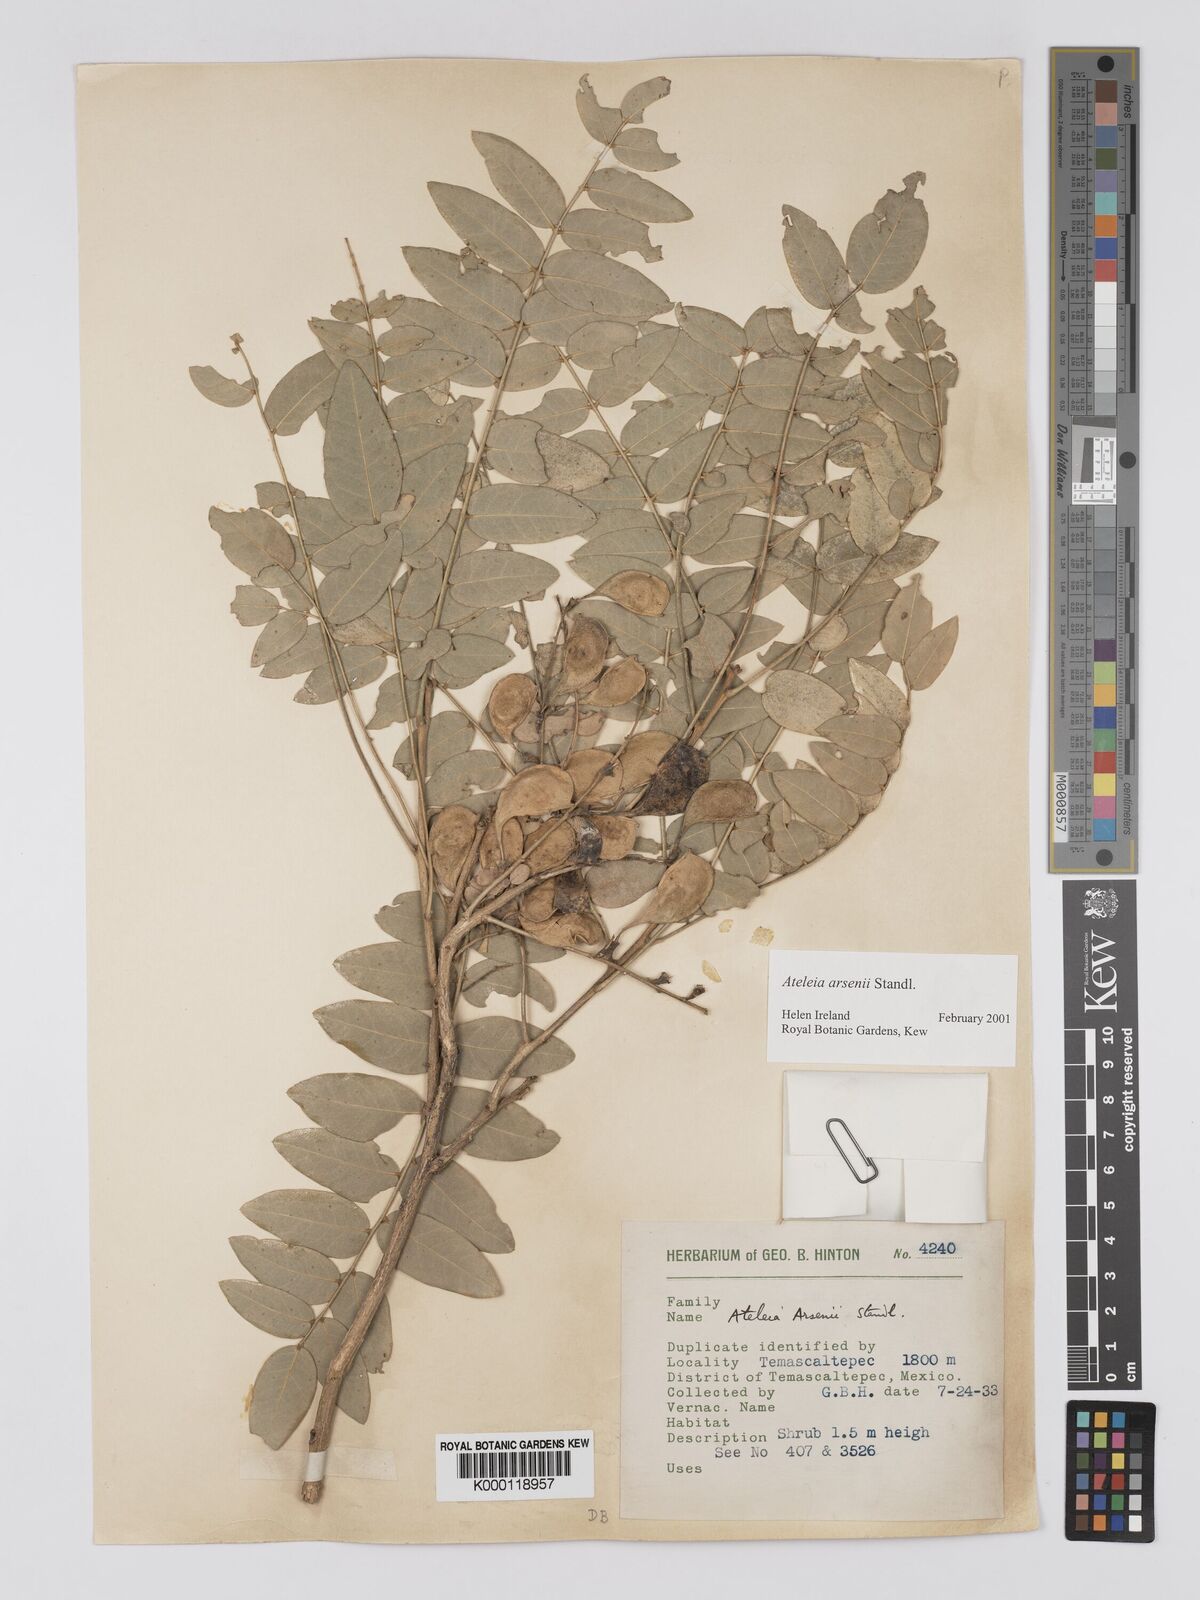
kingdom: Plantae
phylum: Tracheophyta
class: Magnoliopsida
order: Fabales
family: Fabaceae
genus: Ateleia
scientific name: Ateleia arsenii
